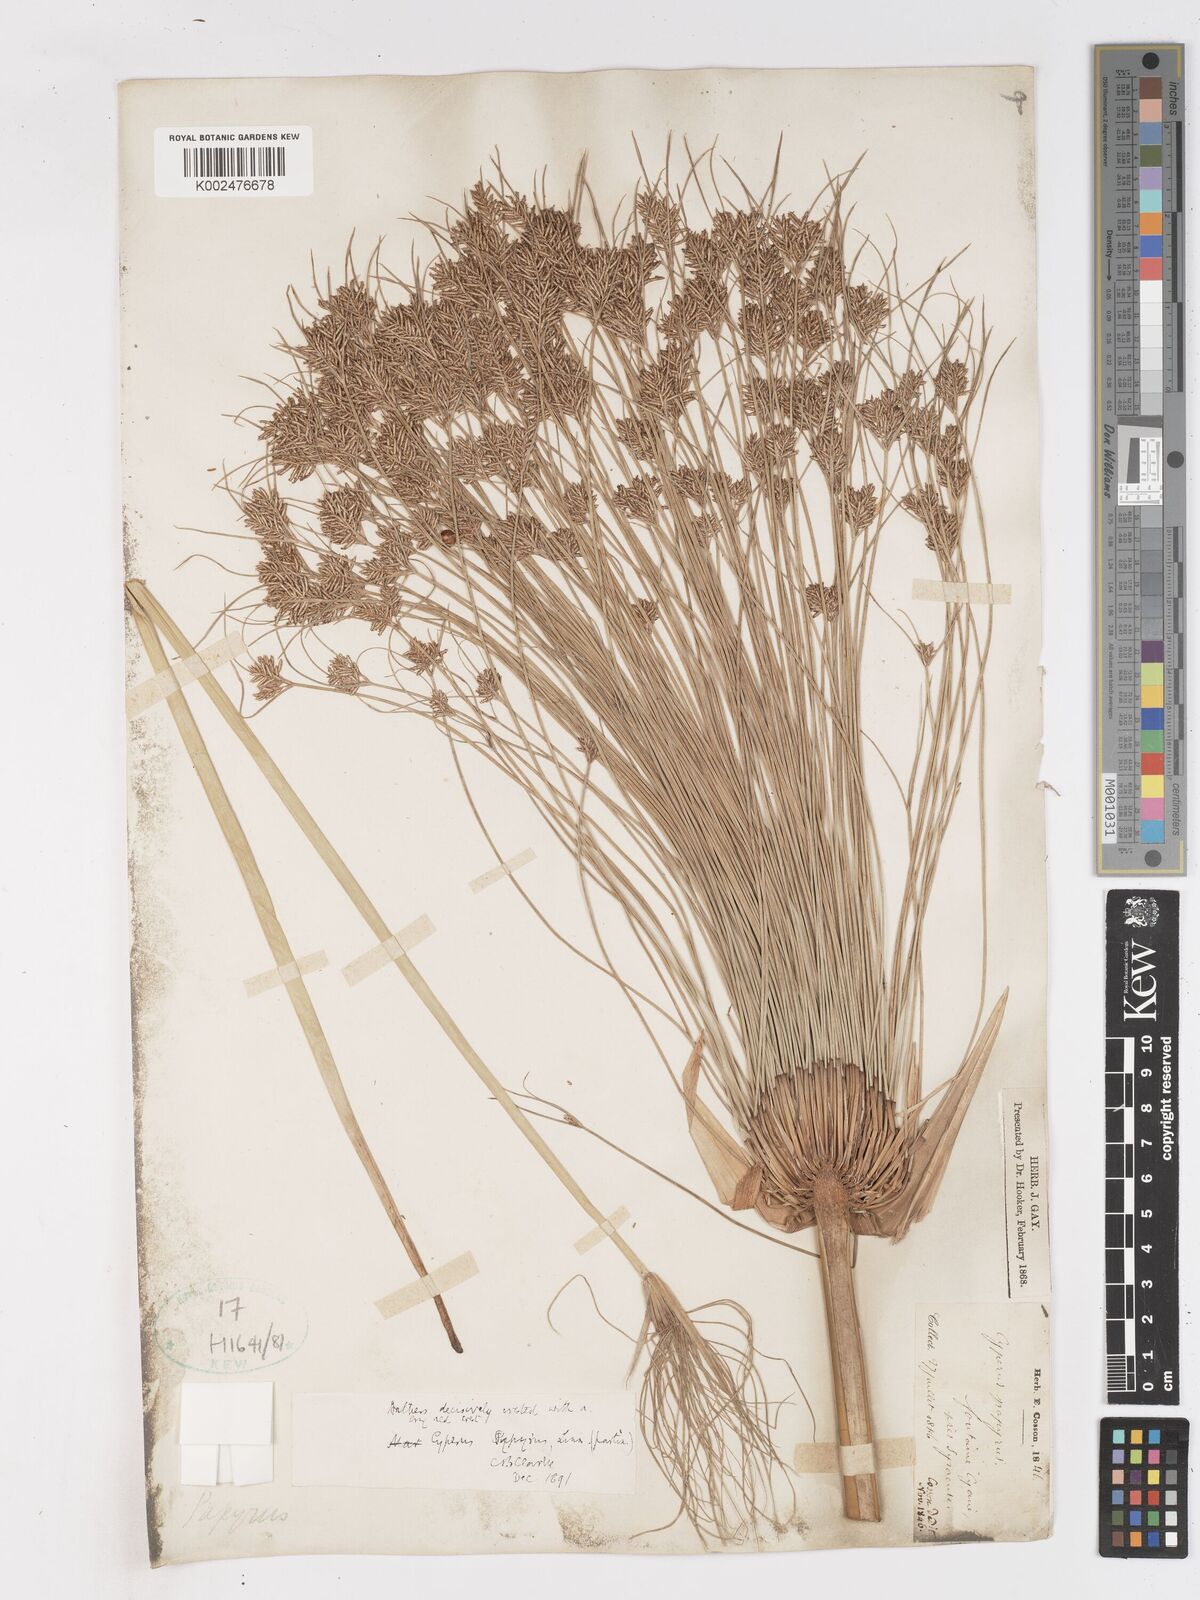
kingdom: Plantae
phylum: Tracheophyta
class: Liliopsida
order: Poales
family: Cyperaceae
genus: Cyperus
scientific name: Cyperus papyrus
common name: Papyrus
